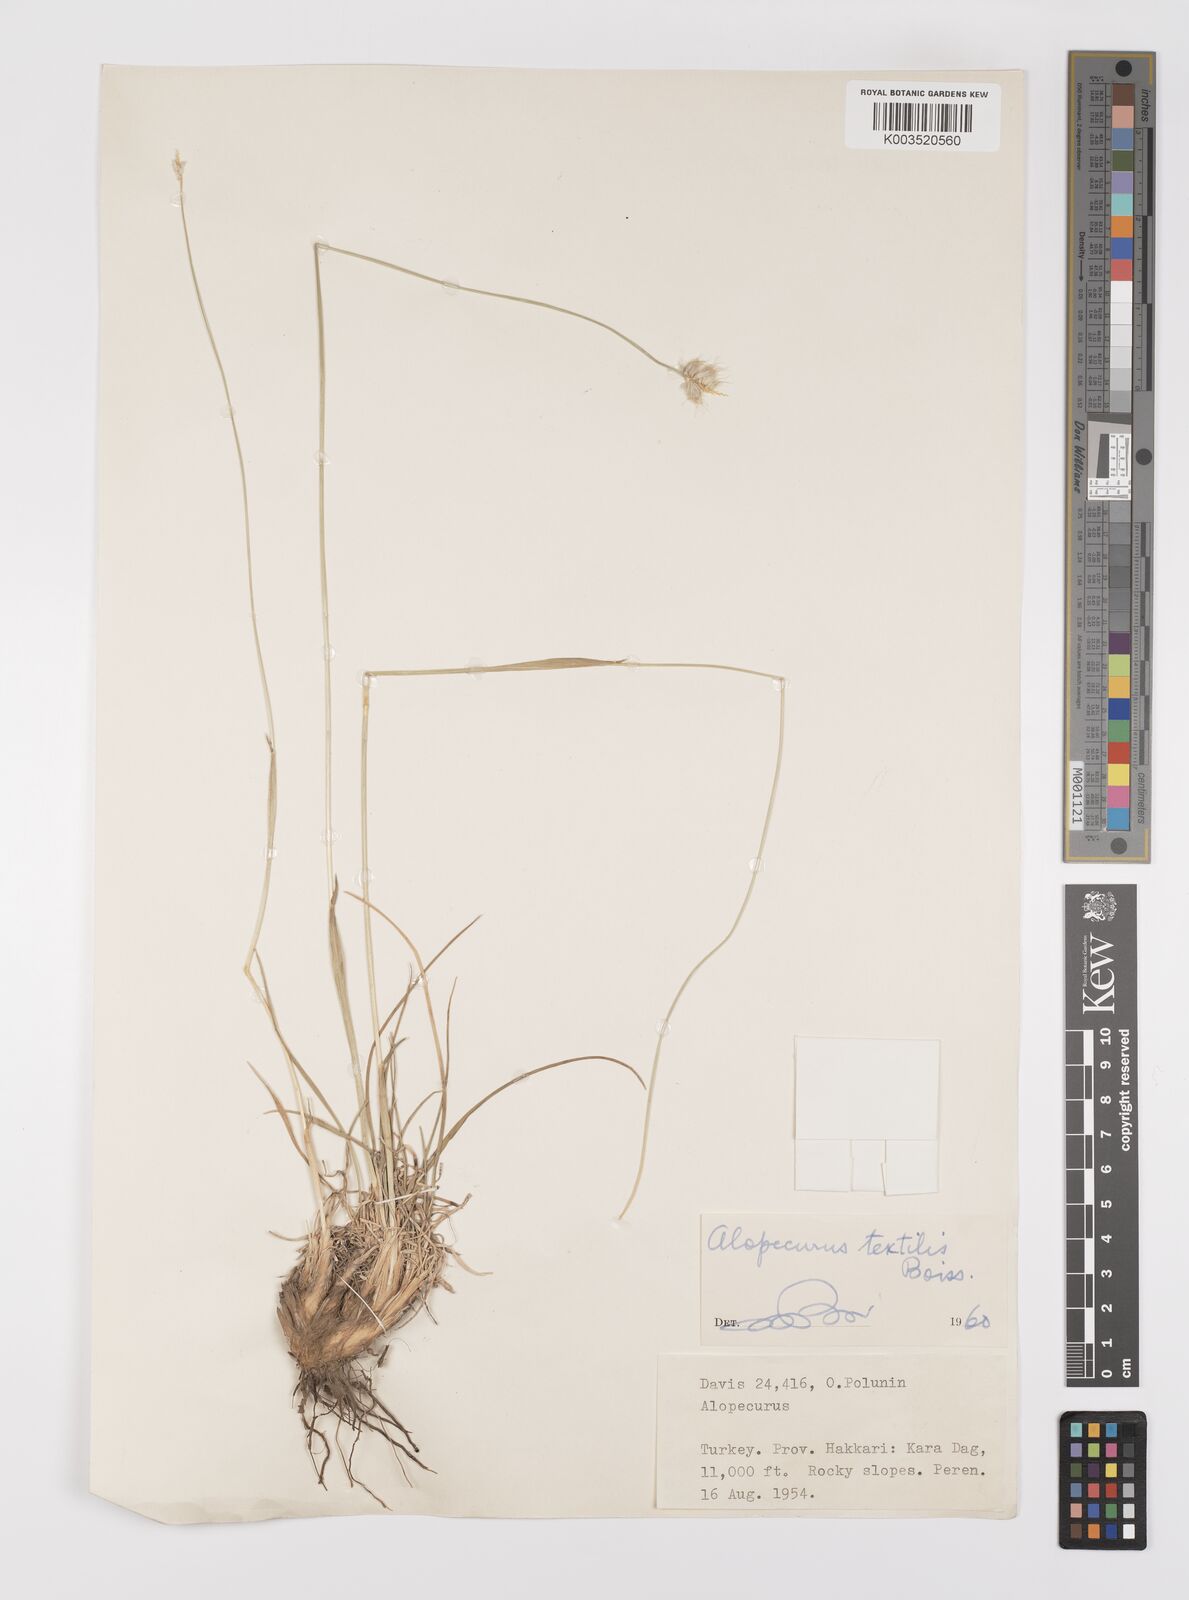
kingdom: Plantae
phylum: Tracheophyta
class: Liliopsida
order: Poales
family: Poaceae
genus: Alopecurus
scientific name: Alopecurus textilis
